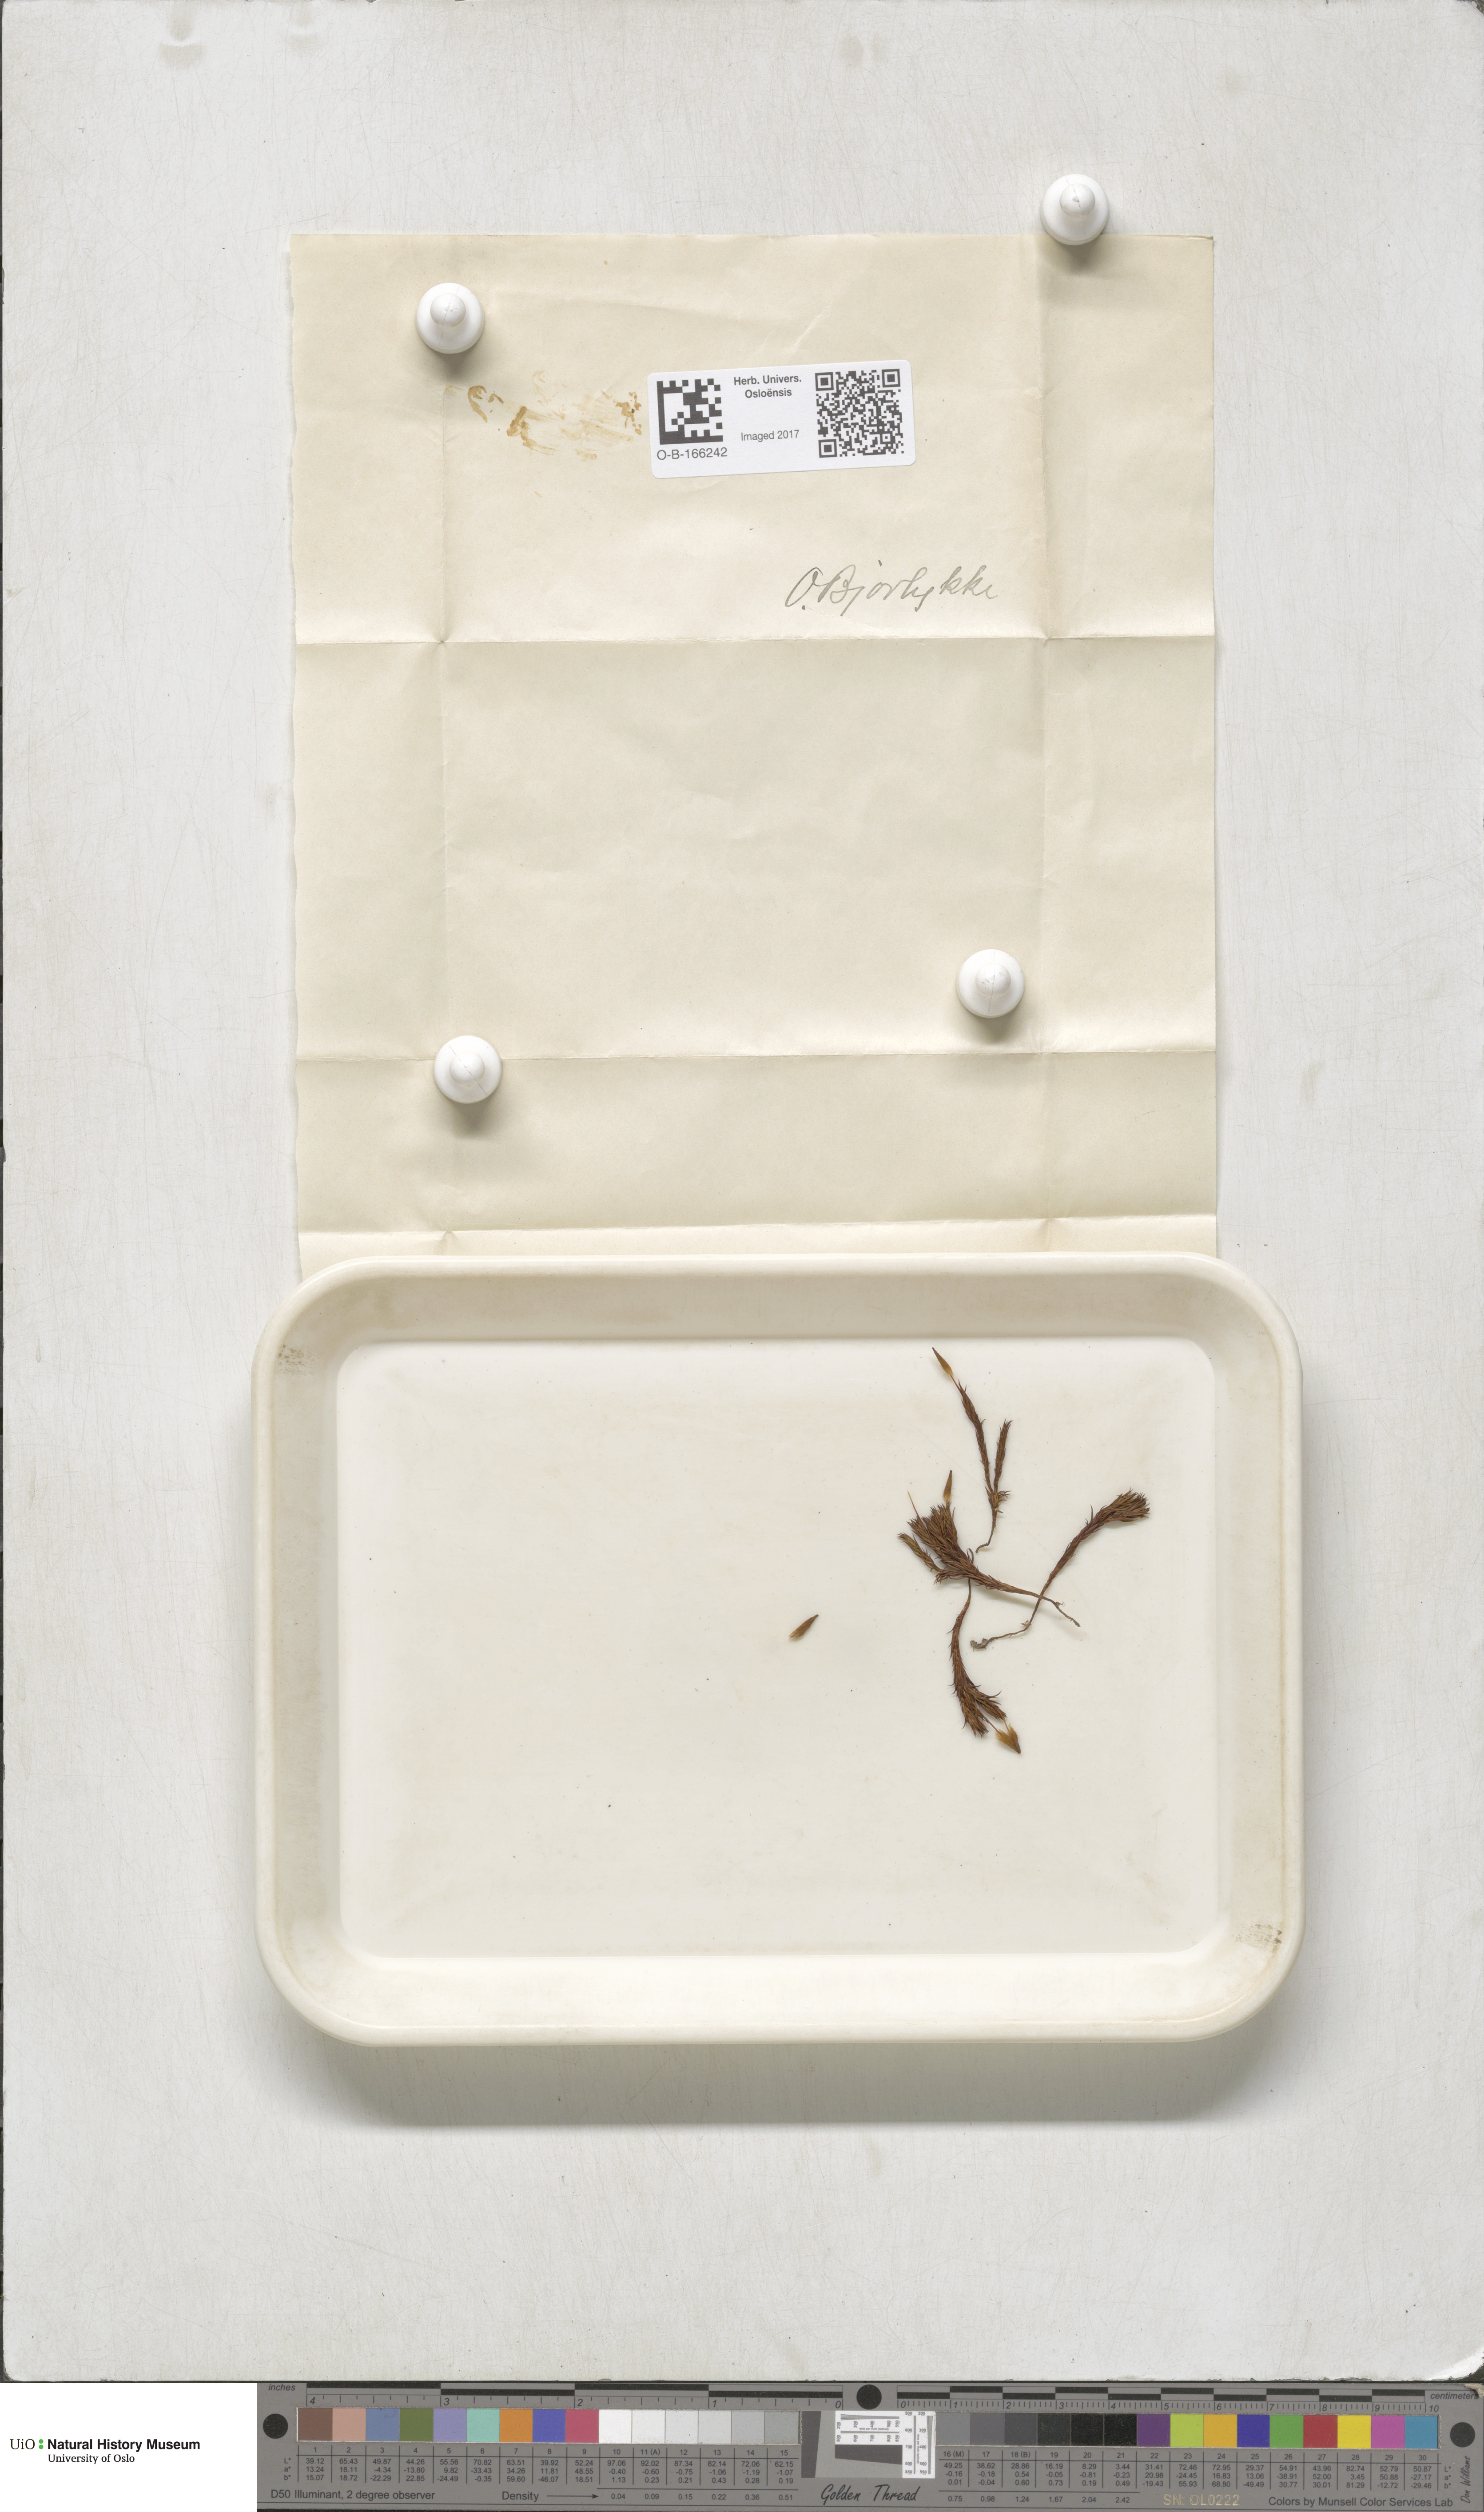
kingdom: Plantae
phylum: Bryophyta
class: Polytrichopsida
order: Polytrichales
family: Polytrichaceae
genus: Polytrichum
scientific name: Polytrichum
